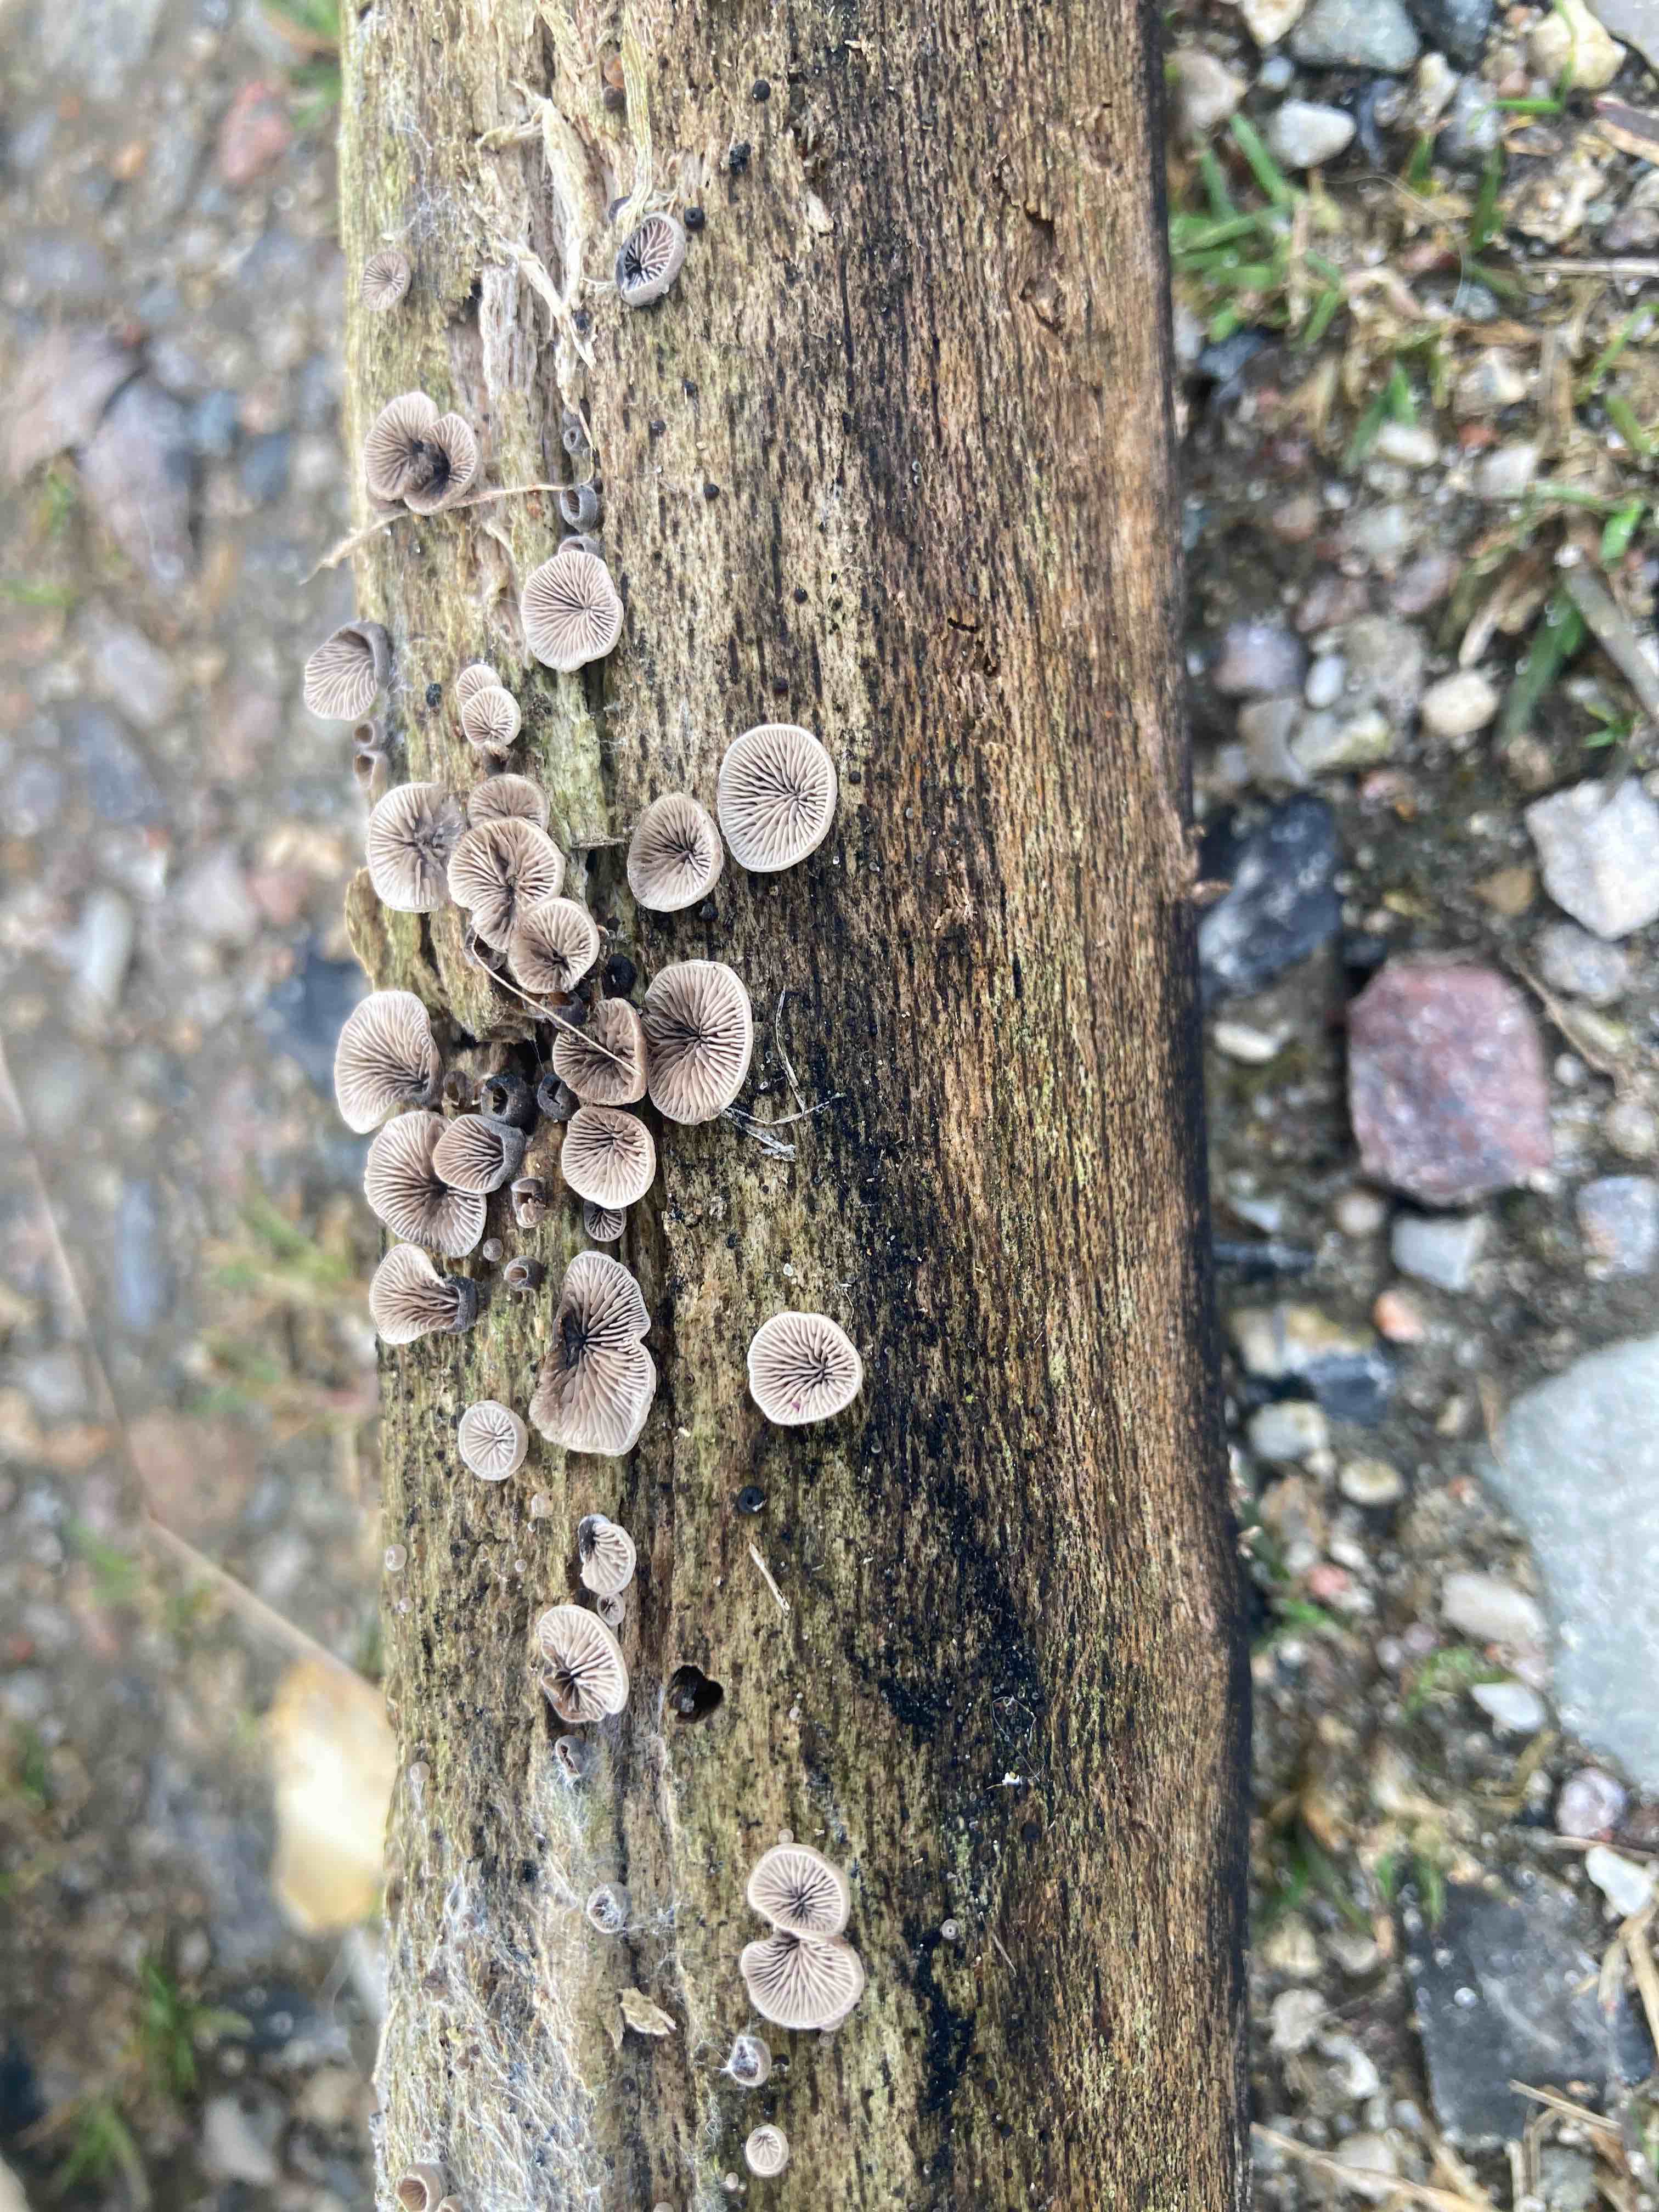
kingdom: Fungi
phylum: Basidiomycota
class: Agaricomycetes
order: Agaricales
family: Pleurotaceae
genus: Resupinatus
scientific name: Resupinatus trichotis
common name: mørkfiltet barkhat
